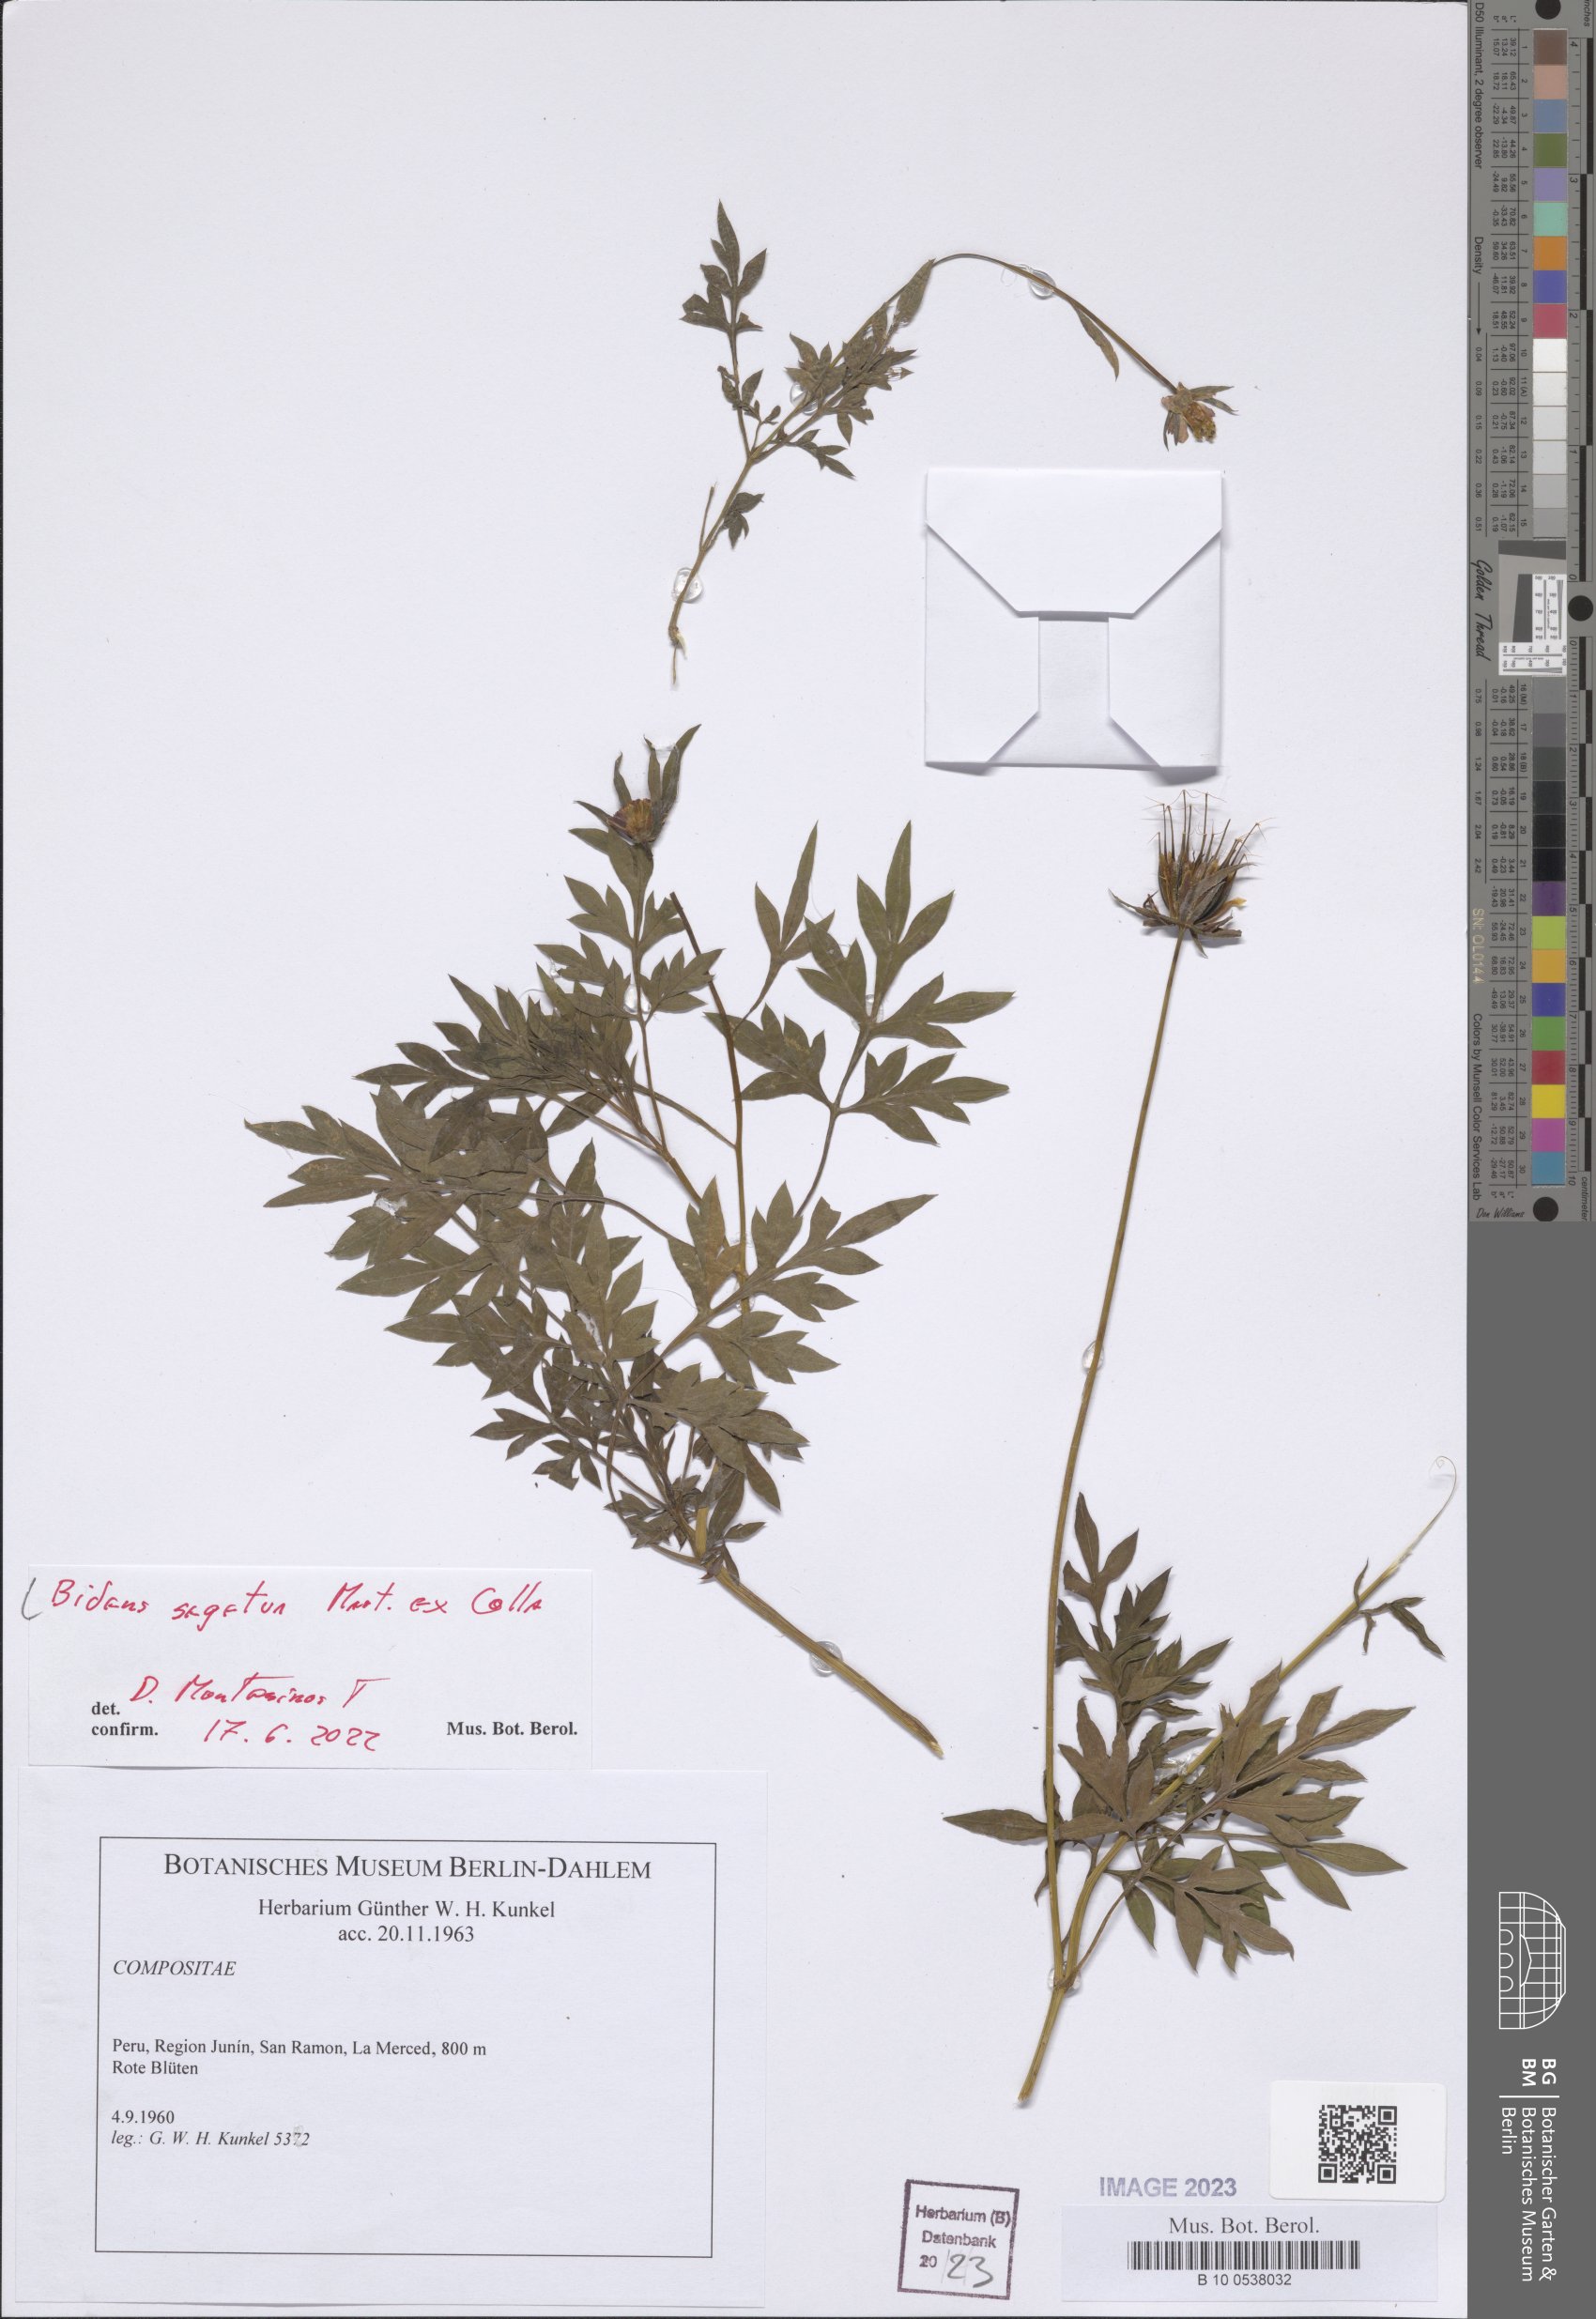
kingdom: Plantae
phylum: Tracheophyta
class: Magnoliopsida
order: Asterales
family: Asteraceae
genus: Bidens
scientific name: Bidens segetum
